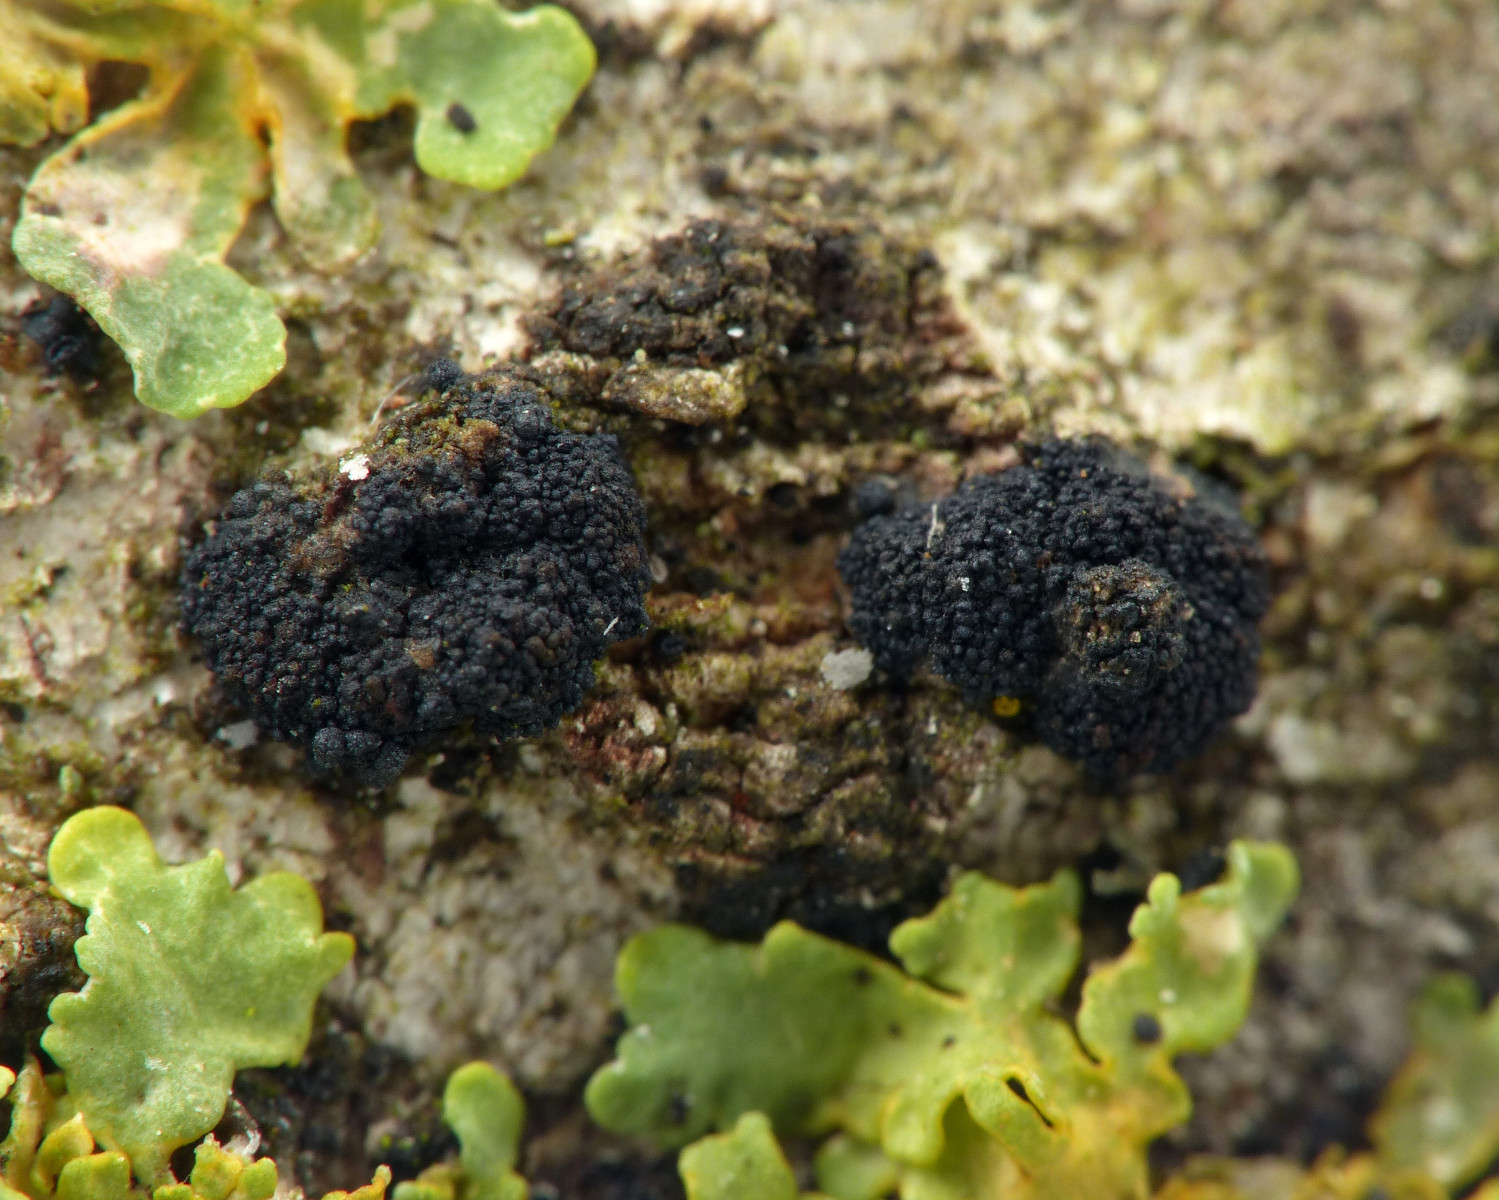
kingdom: Fungi
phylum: Ascomycota
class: Sordariomycetes
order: Hypocreales
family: Nectriaceae
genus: Fusarium
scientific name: Fusarium
